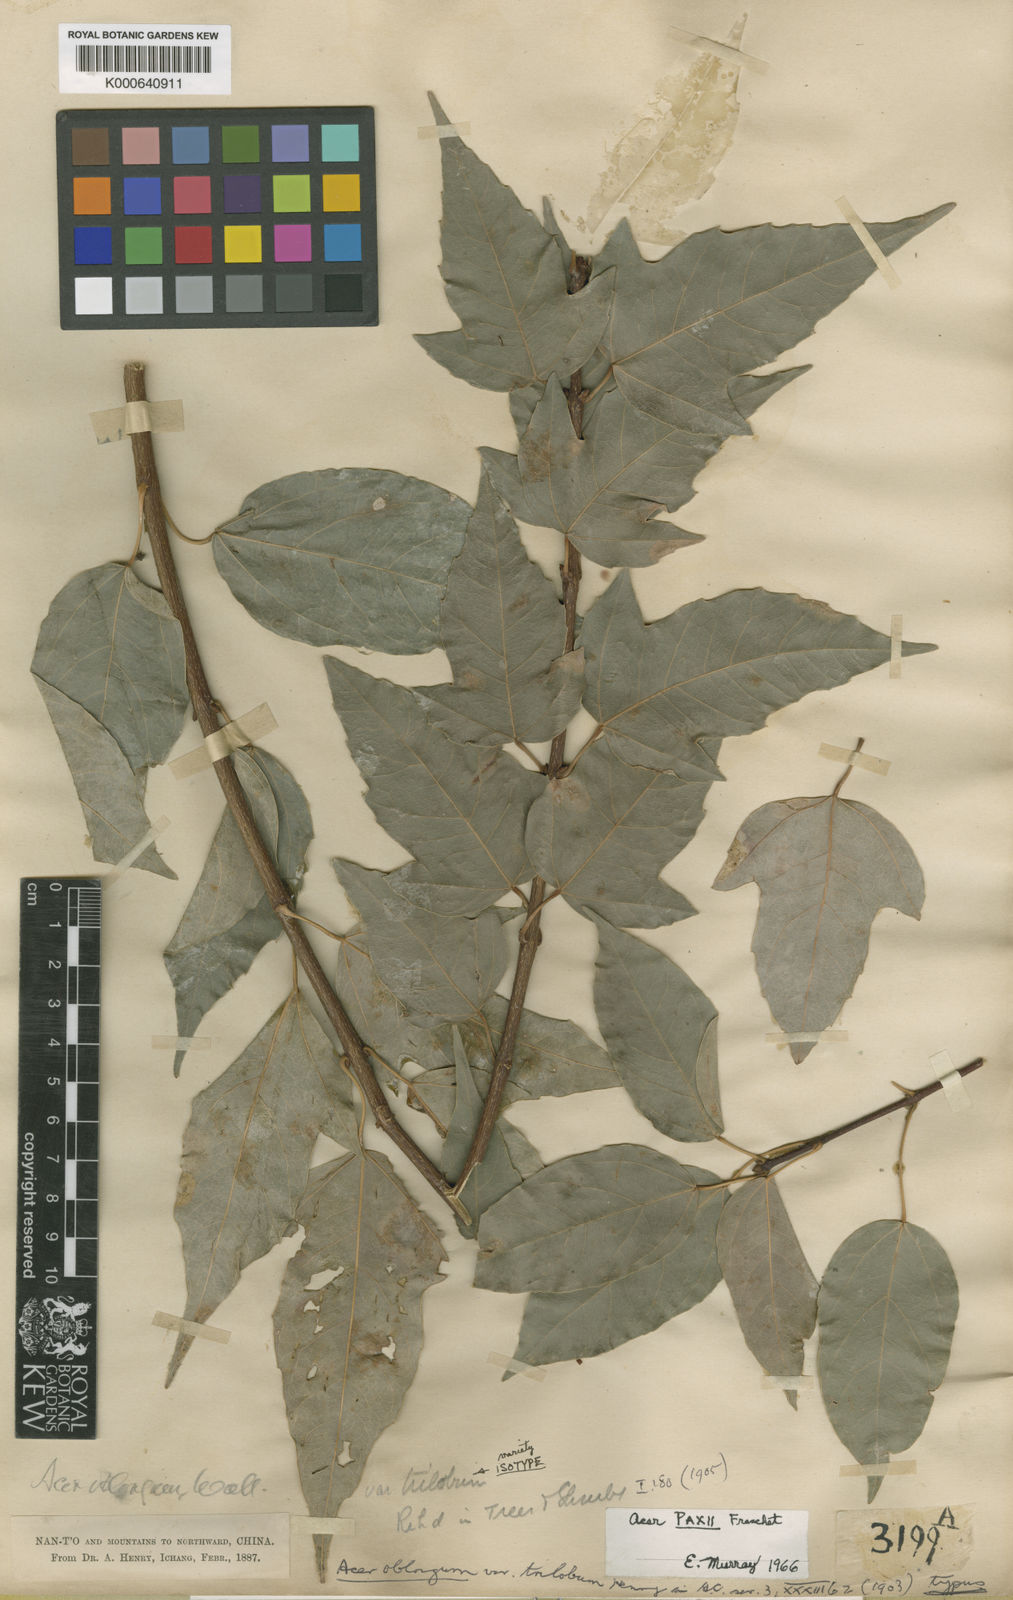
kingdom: Plantae
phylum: Tracheophyta
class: Magnoliopsida
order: Sapindales
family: Sapindaceae
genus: Acer
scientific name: Acer oblongum
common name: Himalayan maple
